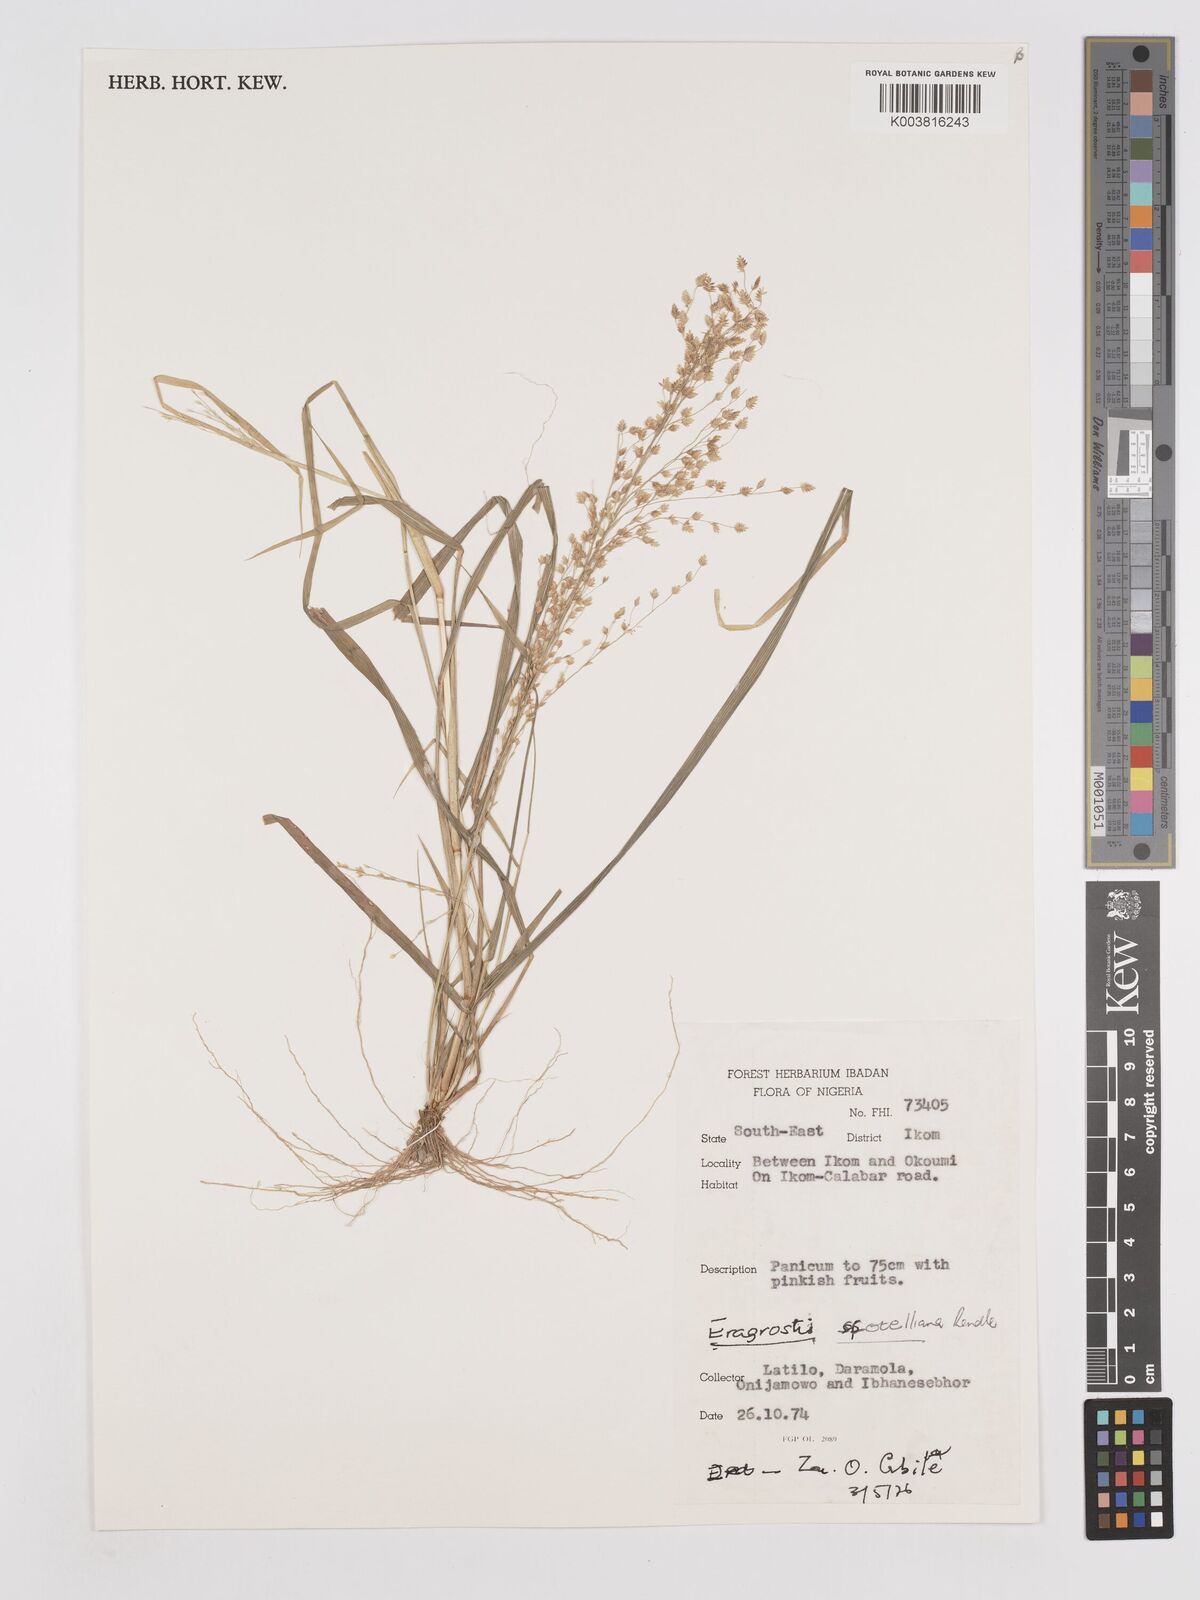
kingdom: Plantae
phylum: Tracheophyta
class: Liliopsida
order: Poales
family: Poaceae
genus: Eragrostis
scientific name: Eragrostis scotelliana
